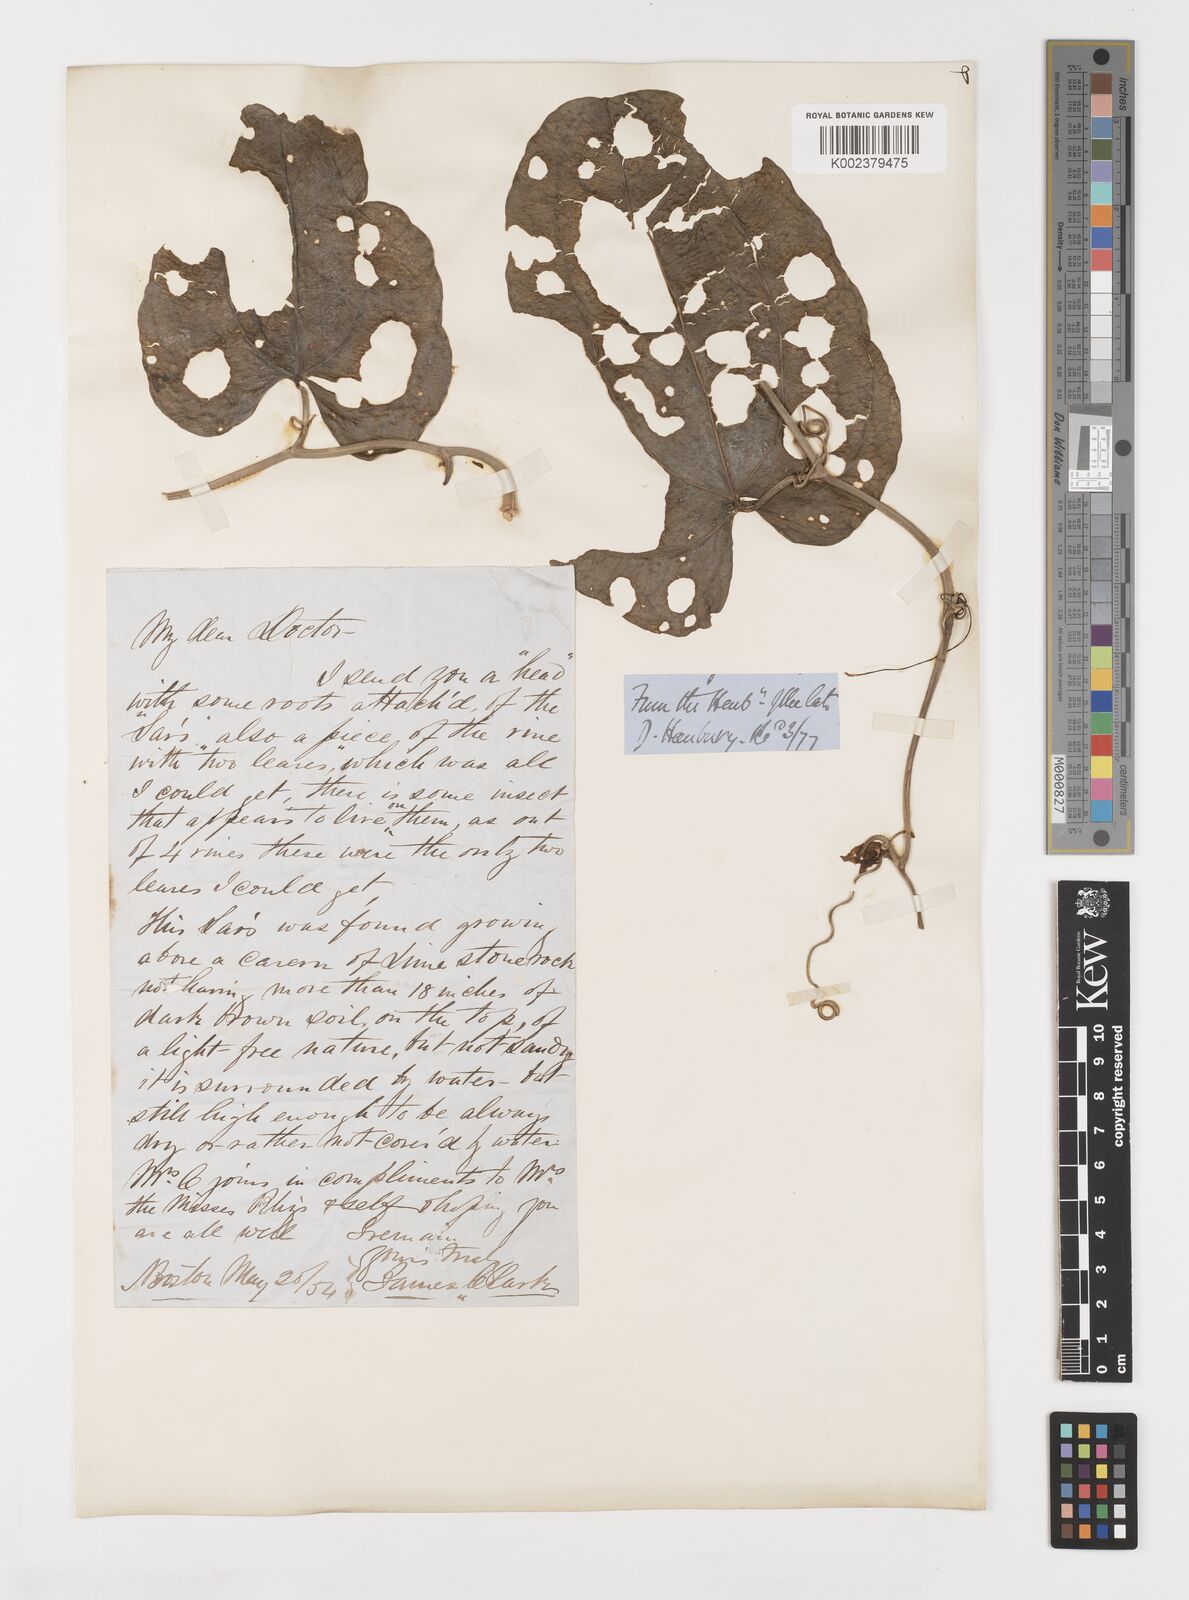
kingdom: Plantae
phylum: Tracheophyta
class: Liliopsida
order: Liliales
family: Smilacaceae
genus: Smilax
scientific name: Smilax
